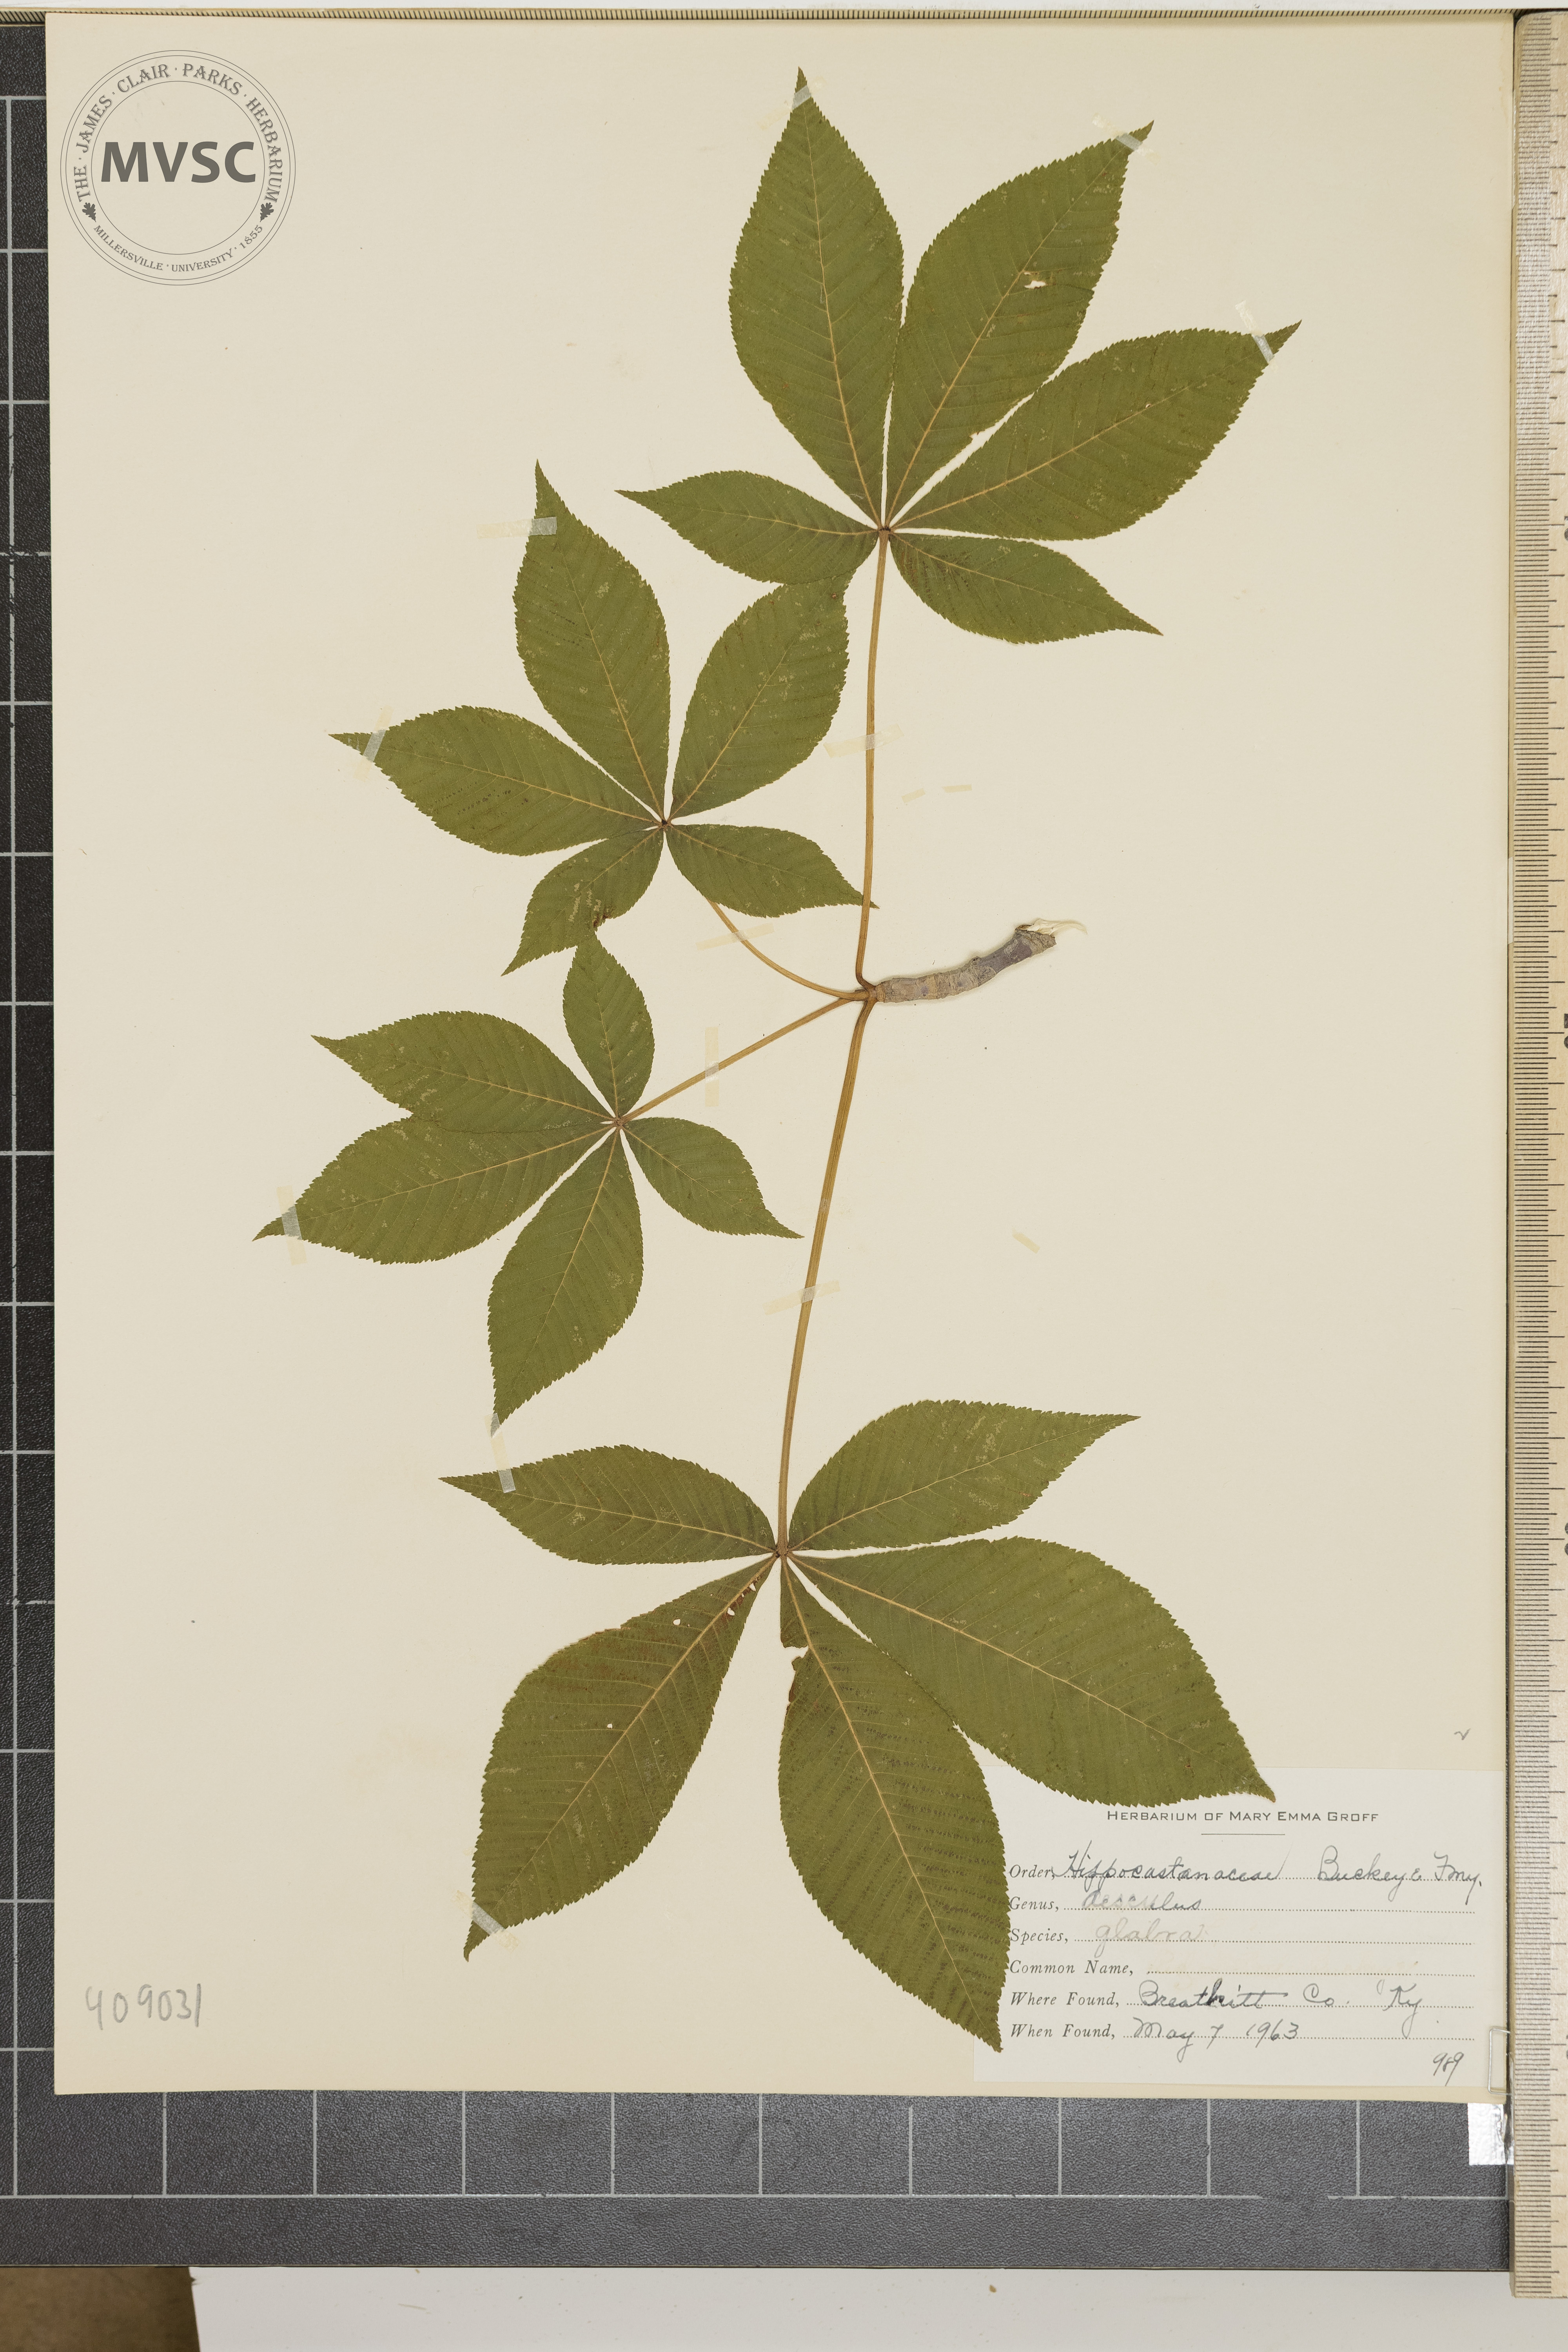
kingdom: Plantae
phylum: Tracheophyta
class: Magnoliopsida
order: Sapindales
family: Sapindaceae
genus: Aesculus
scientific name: Aesculus glabra
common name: Ohio buckeye
